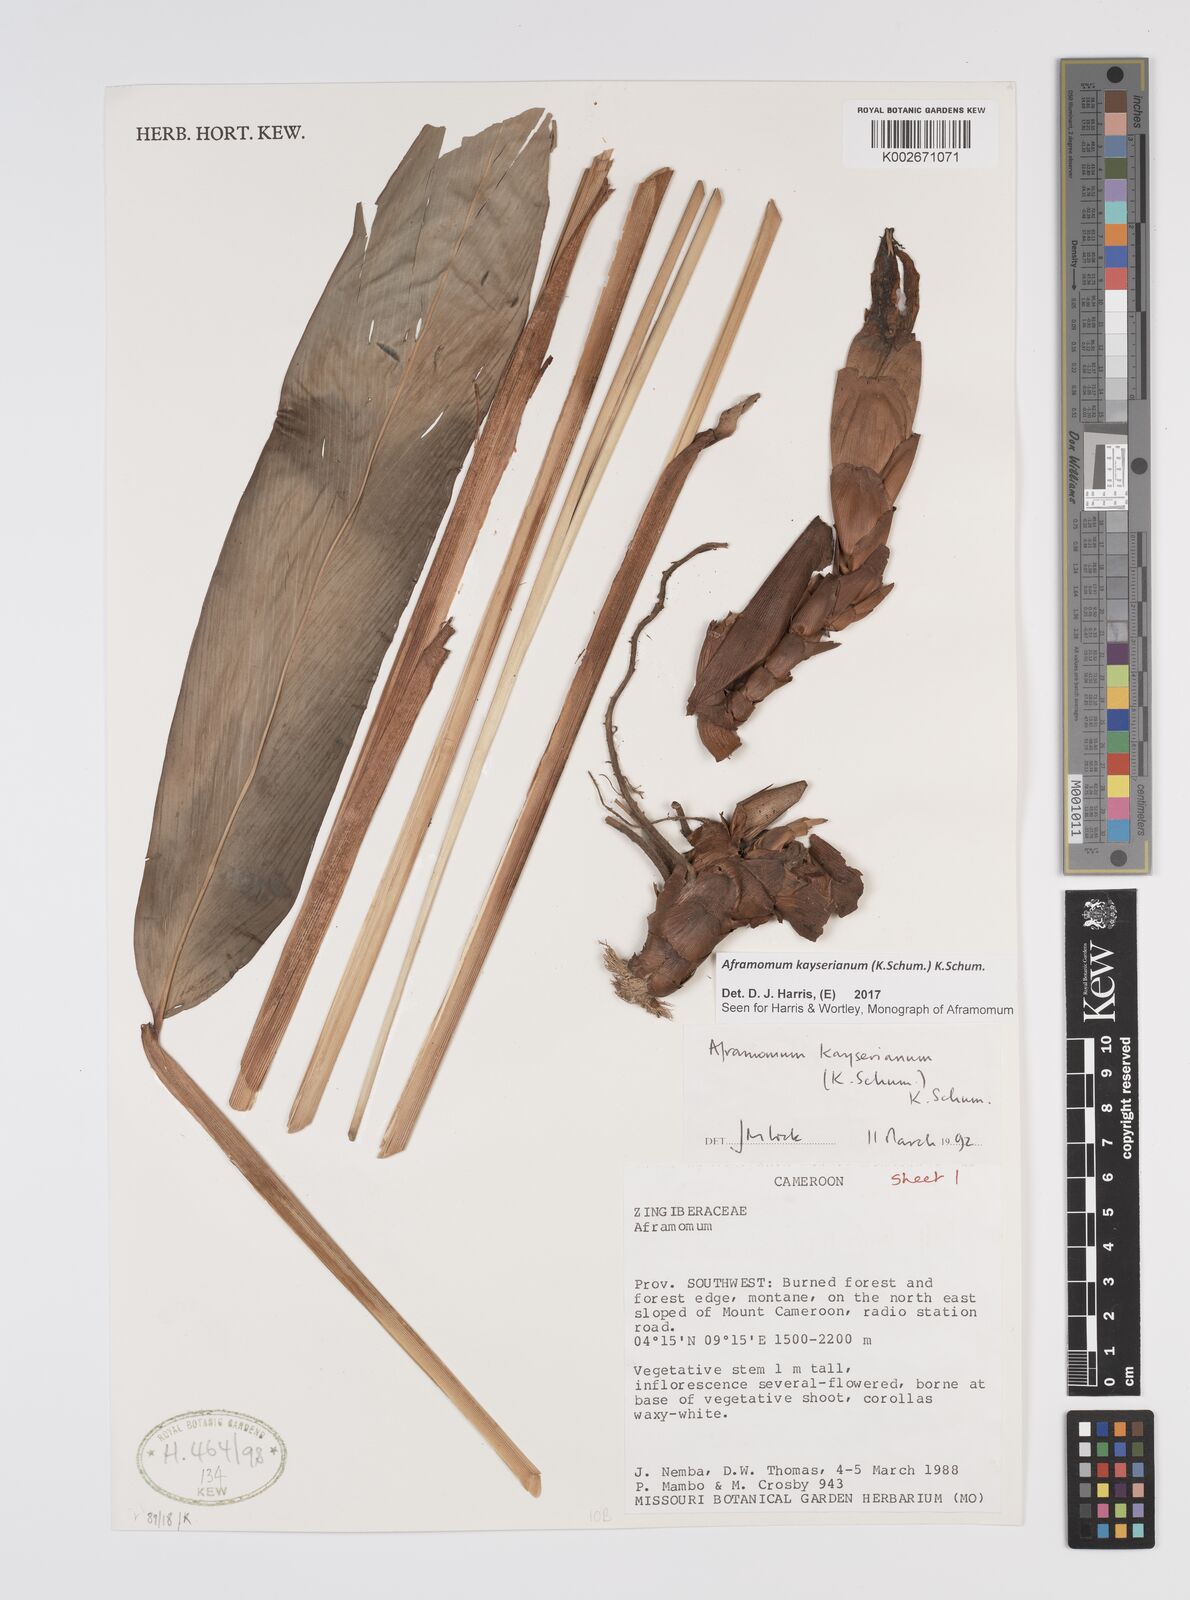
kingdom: Plantae
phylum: Tracheophyta
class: Liliopsida
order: Zingiberales
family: Zingiberaceae
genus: Aframomum
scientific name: Aframomum kayserianum
